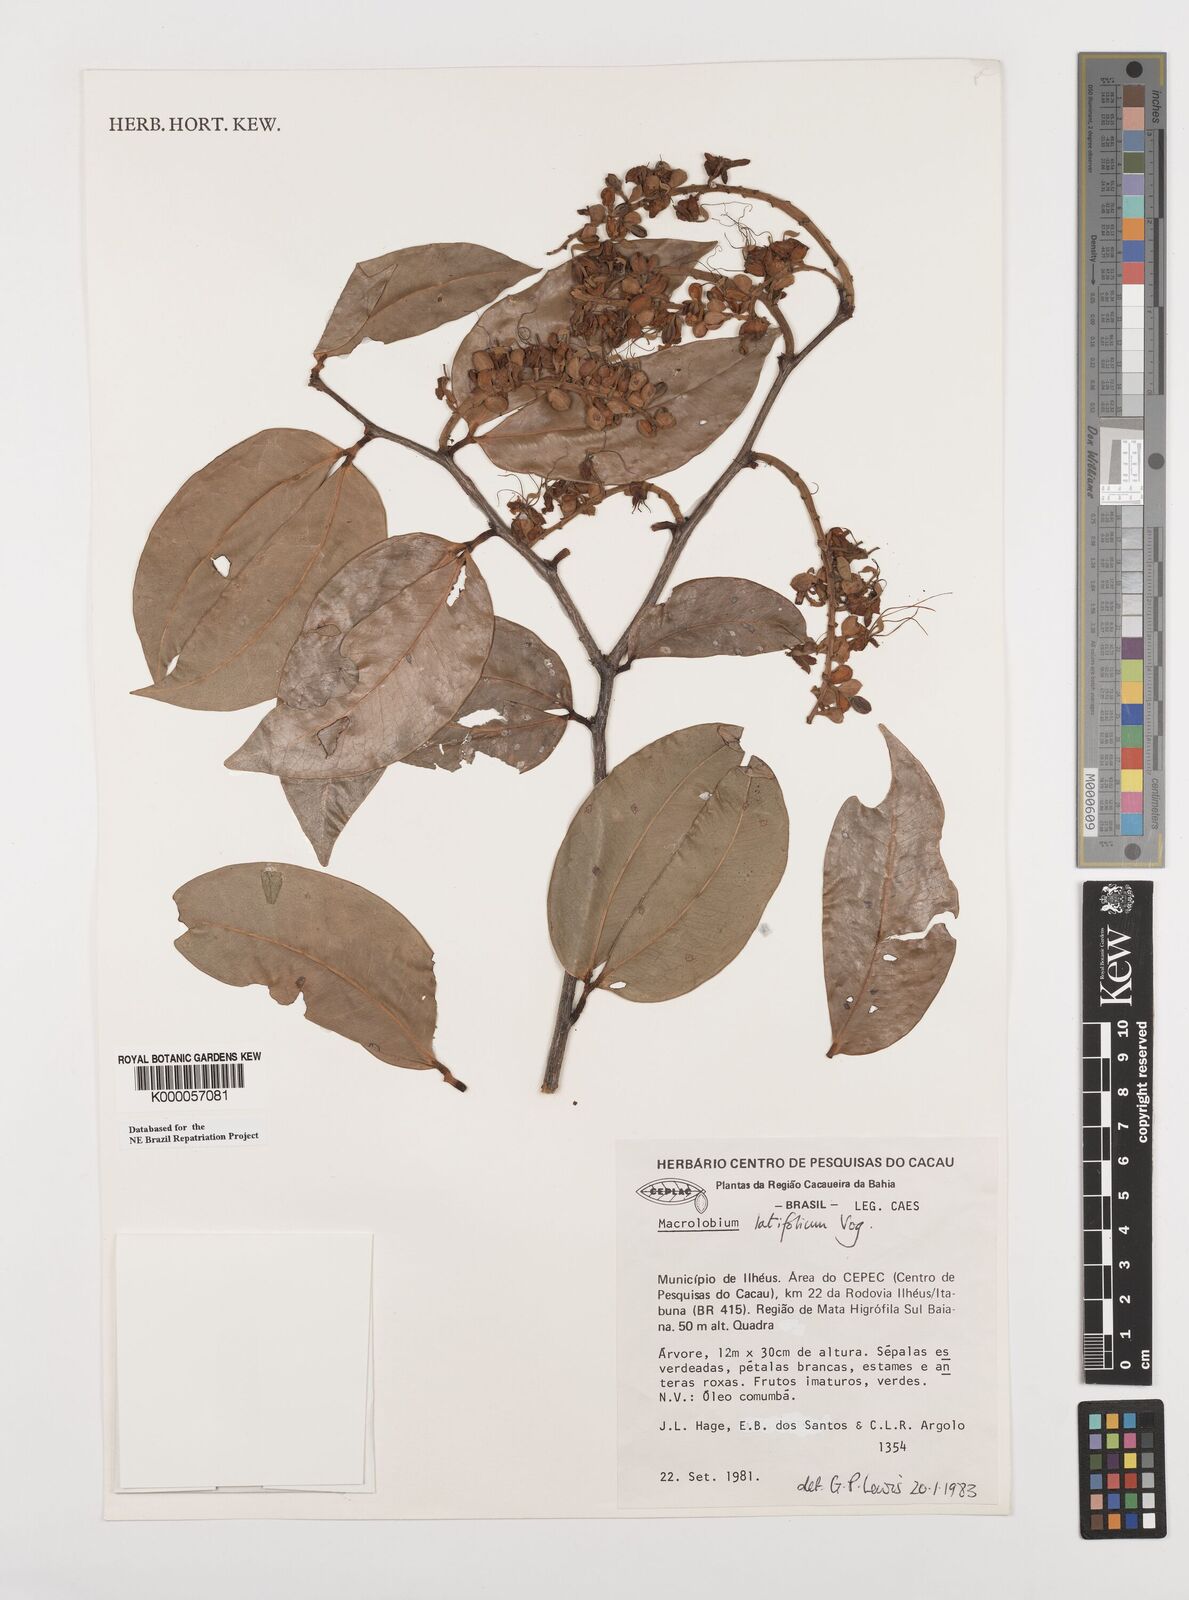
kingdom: Plantae
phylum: Tracheophyta
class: Magnoliopsida
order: Fabales
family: Fabaceae
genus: Macrolobium
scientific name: Macrolobium latifolium
